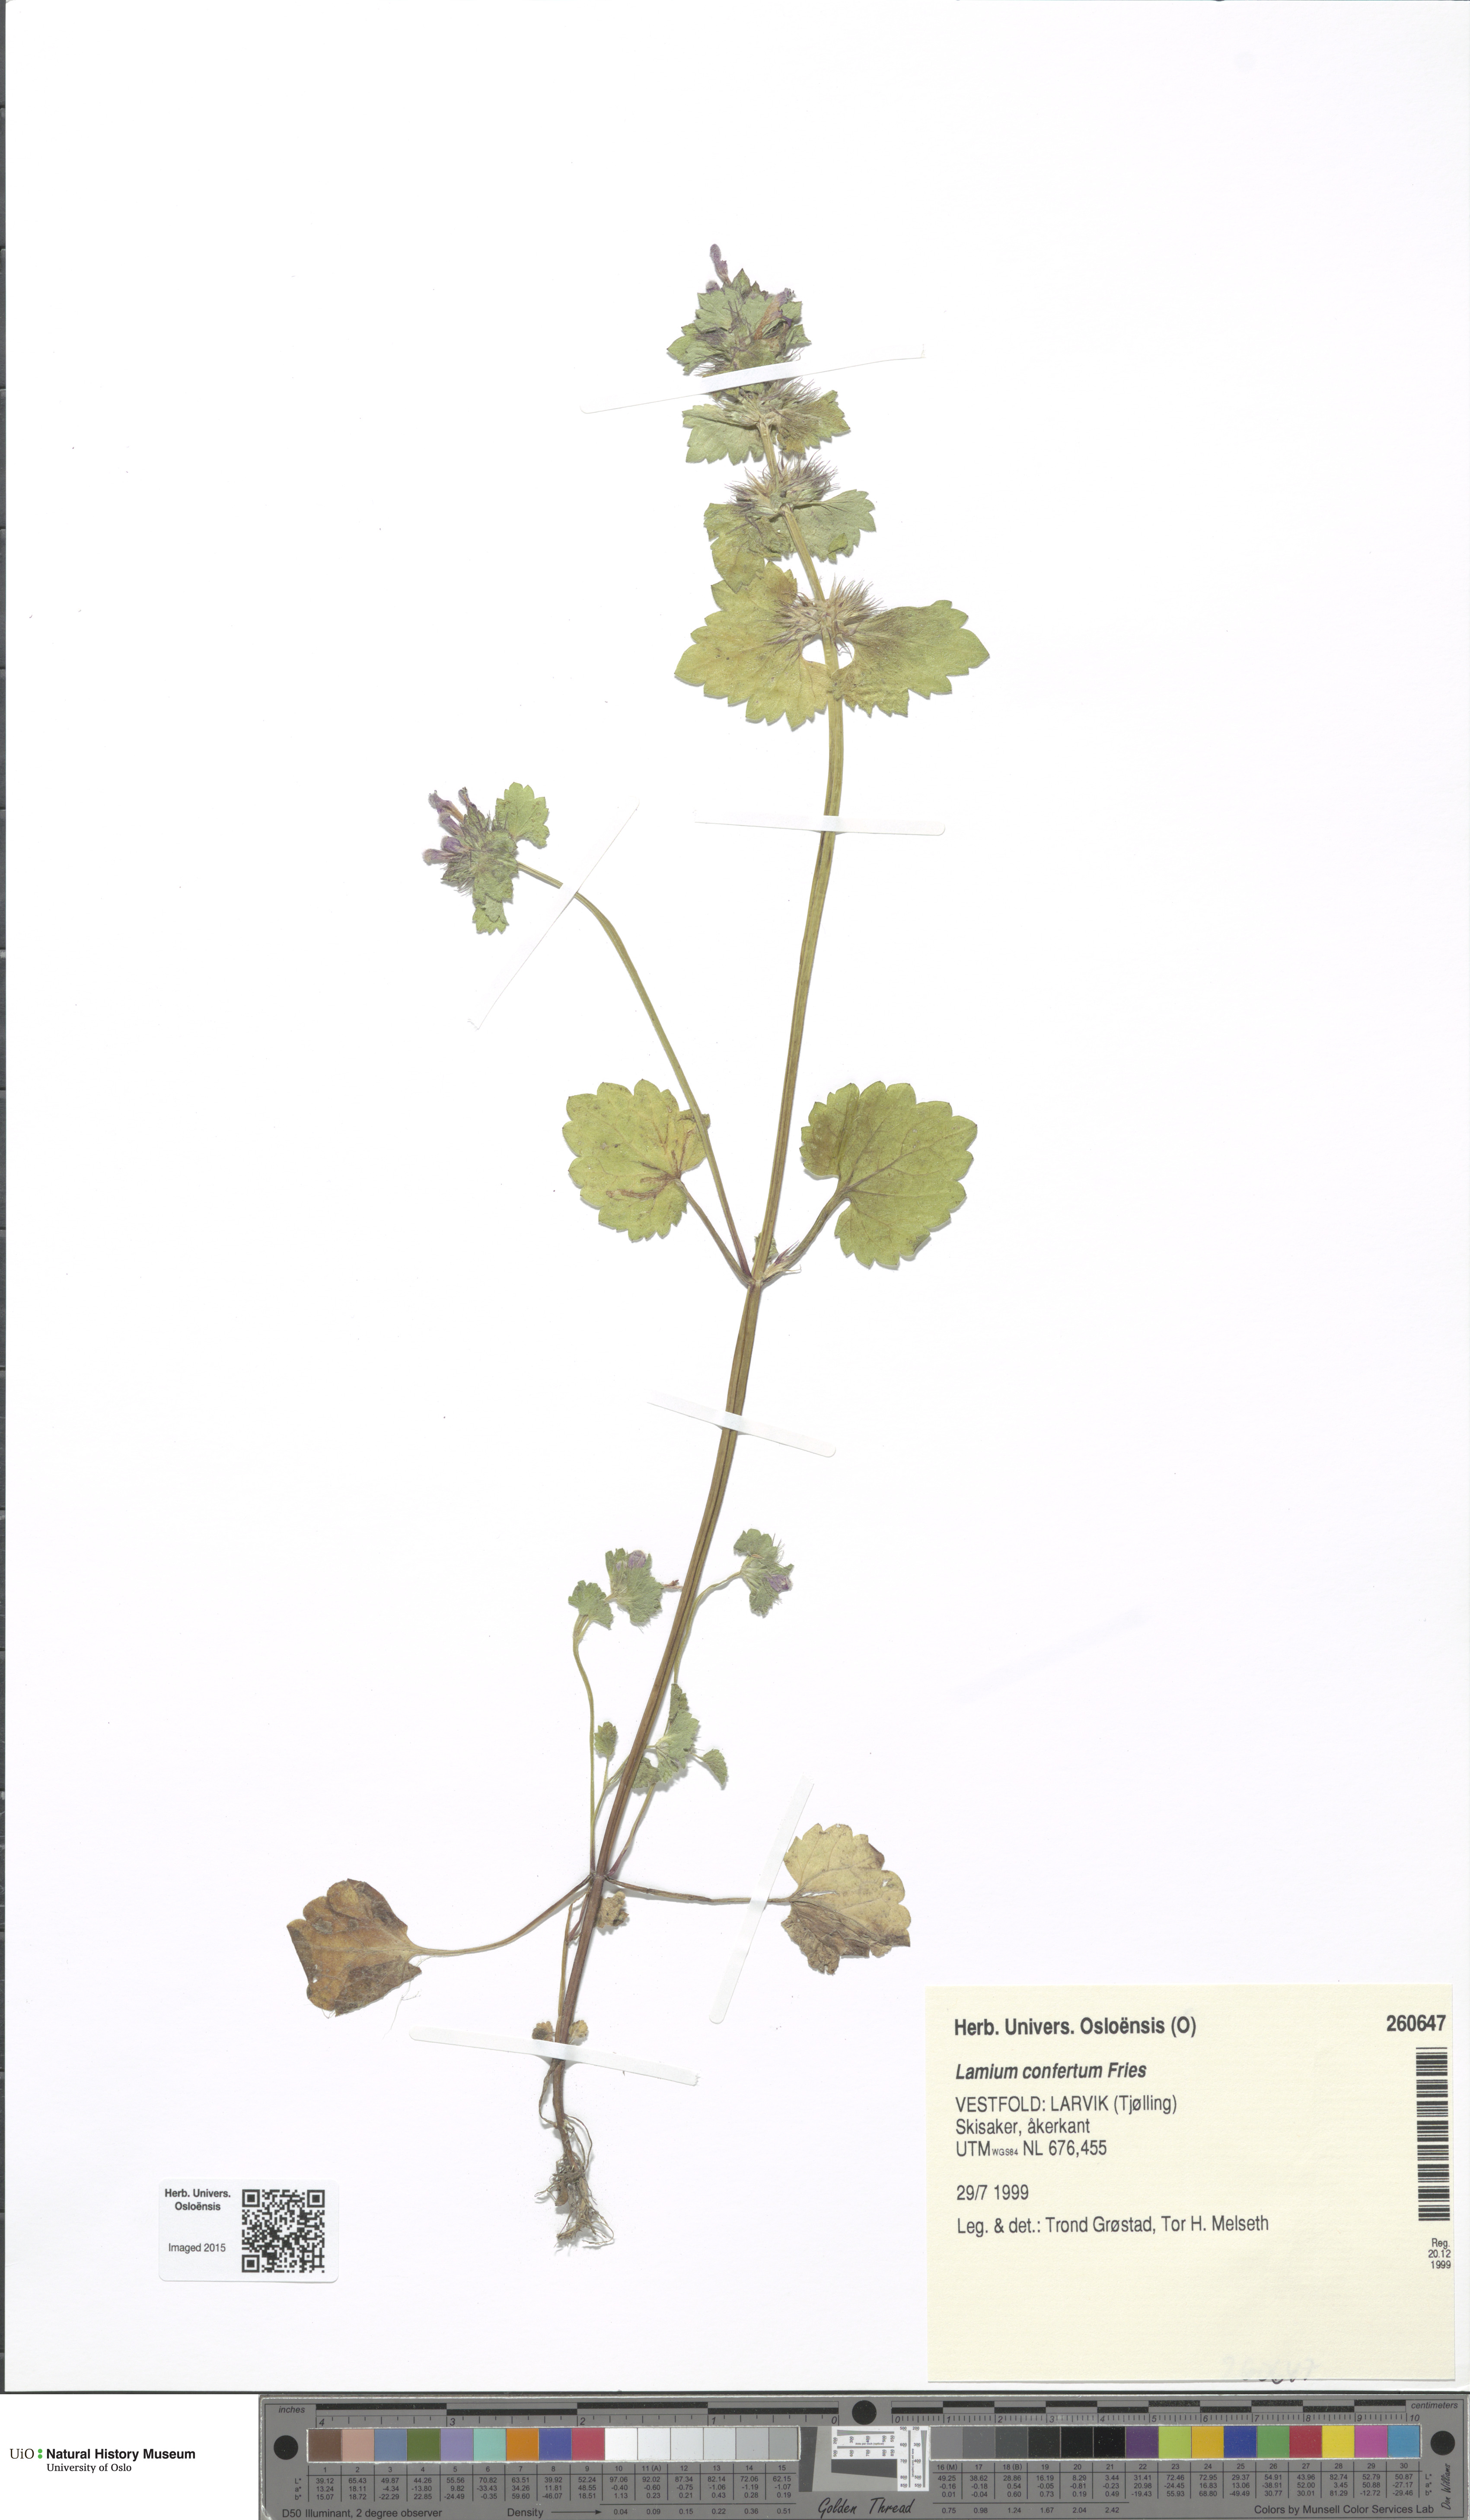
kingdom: Plantae
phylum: Tracheophyta
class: Magnoliopsida
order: Lamiales
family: Lamiaceae
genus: Lamium
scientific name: Lamium confertum
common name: Northern dead-nettle
